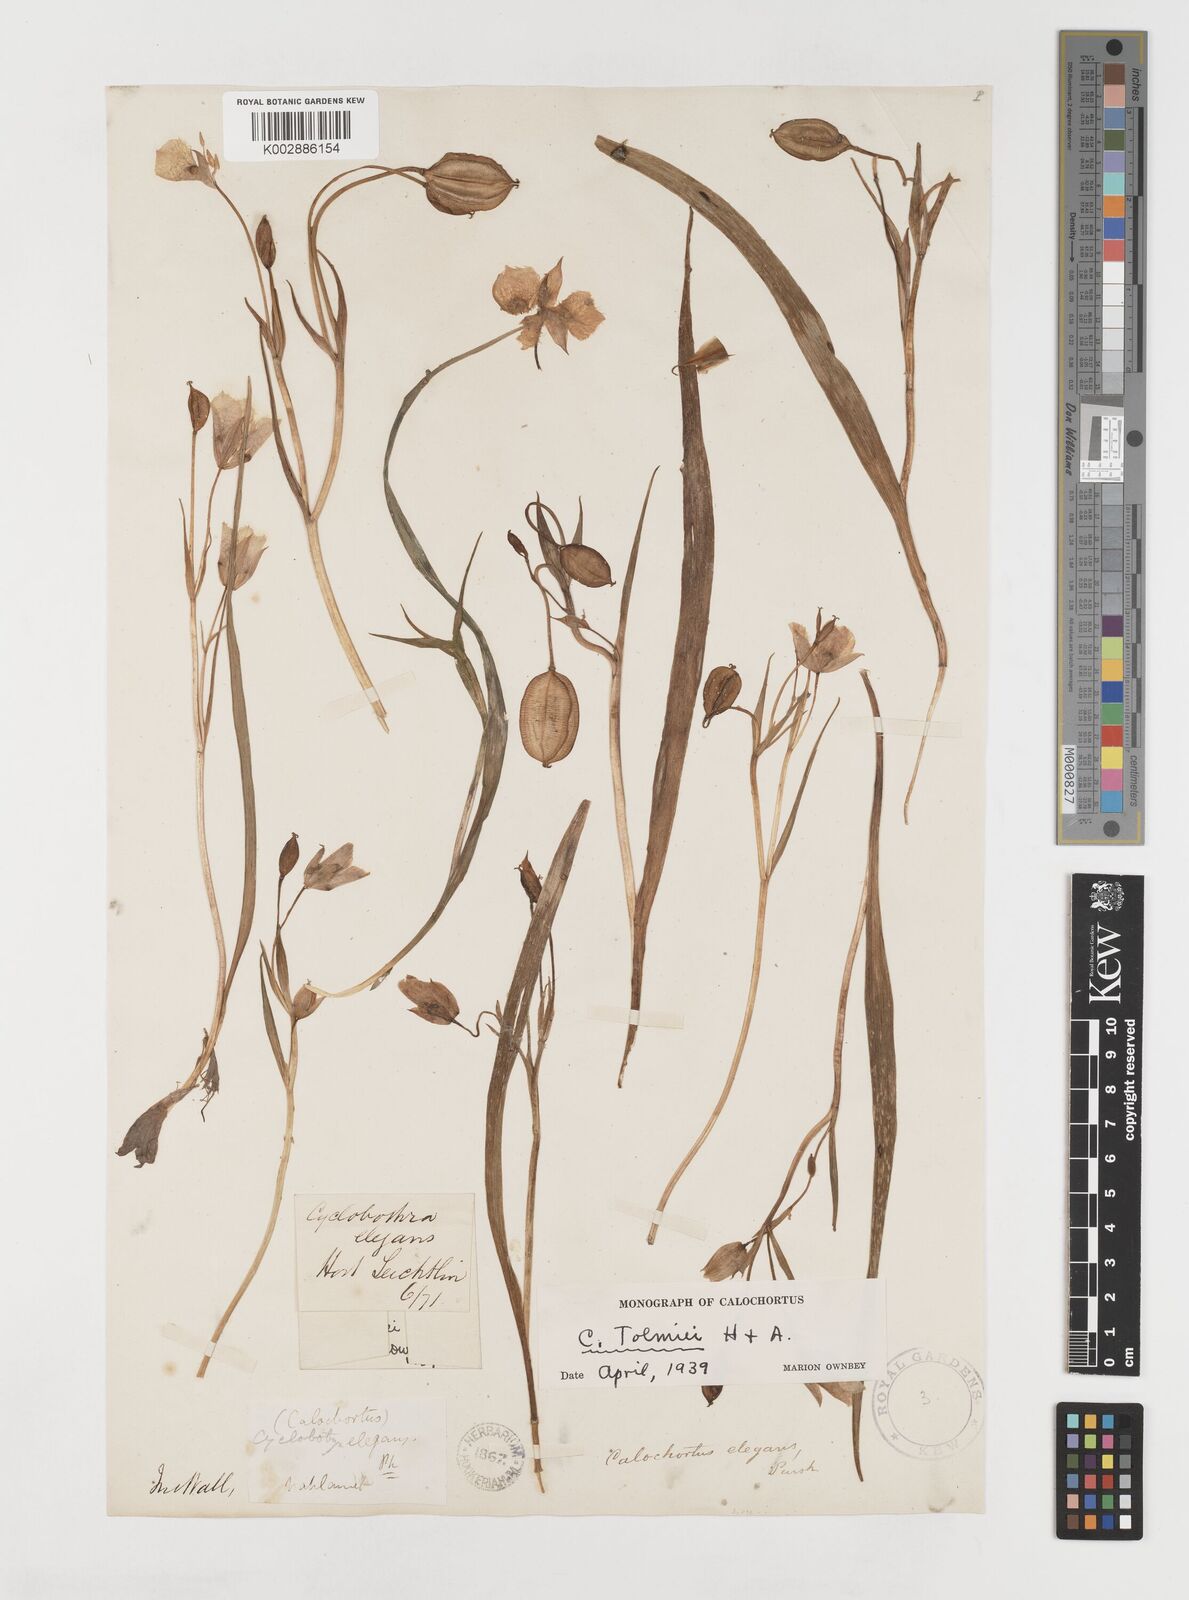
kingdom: Plantae
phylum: Tracheophyta
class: Liliopsida
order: Liliales
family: Liliaceae
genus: Calochortus
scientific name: Calochortus tolmiei
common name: Pussy-ears
